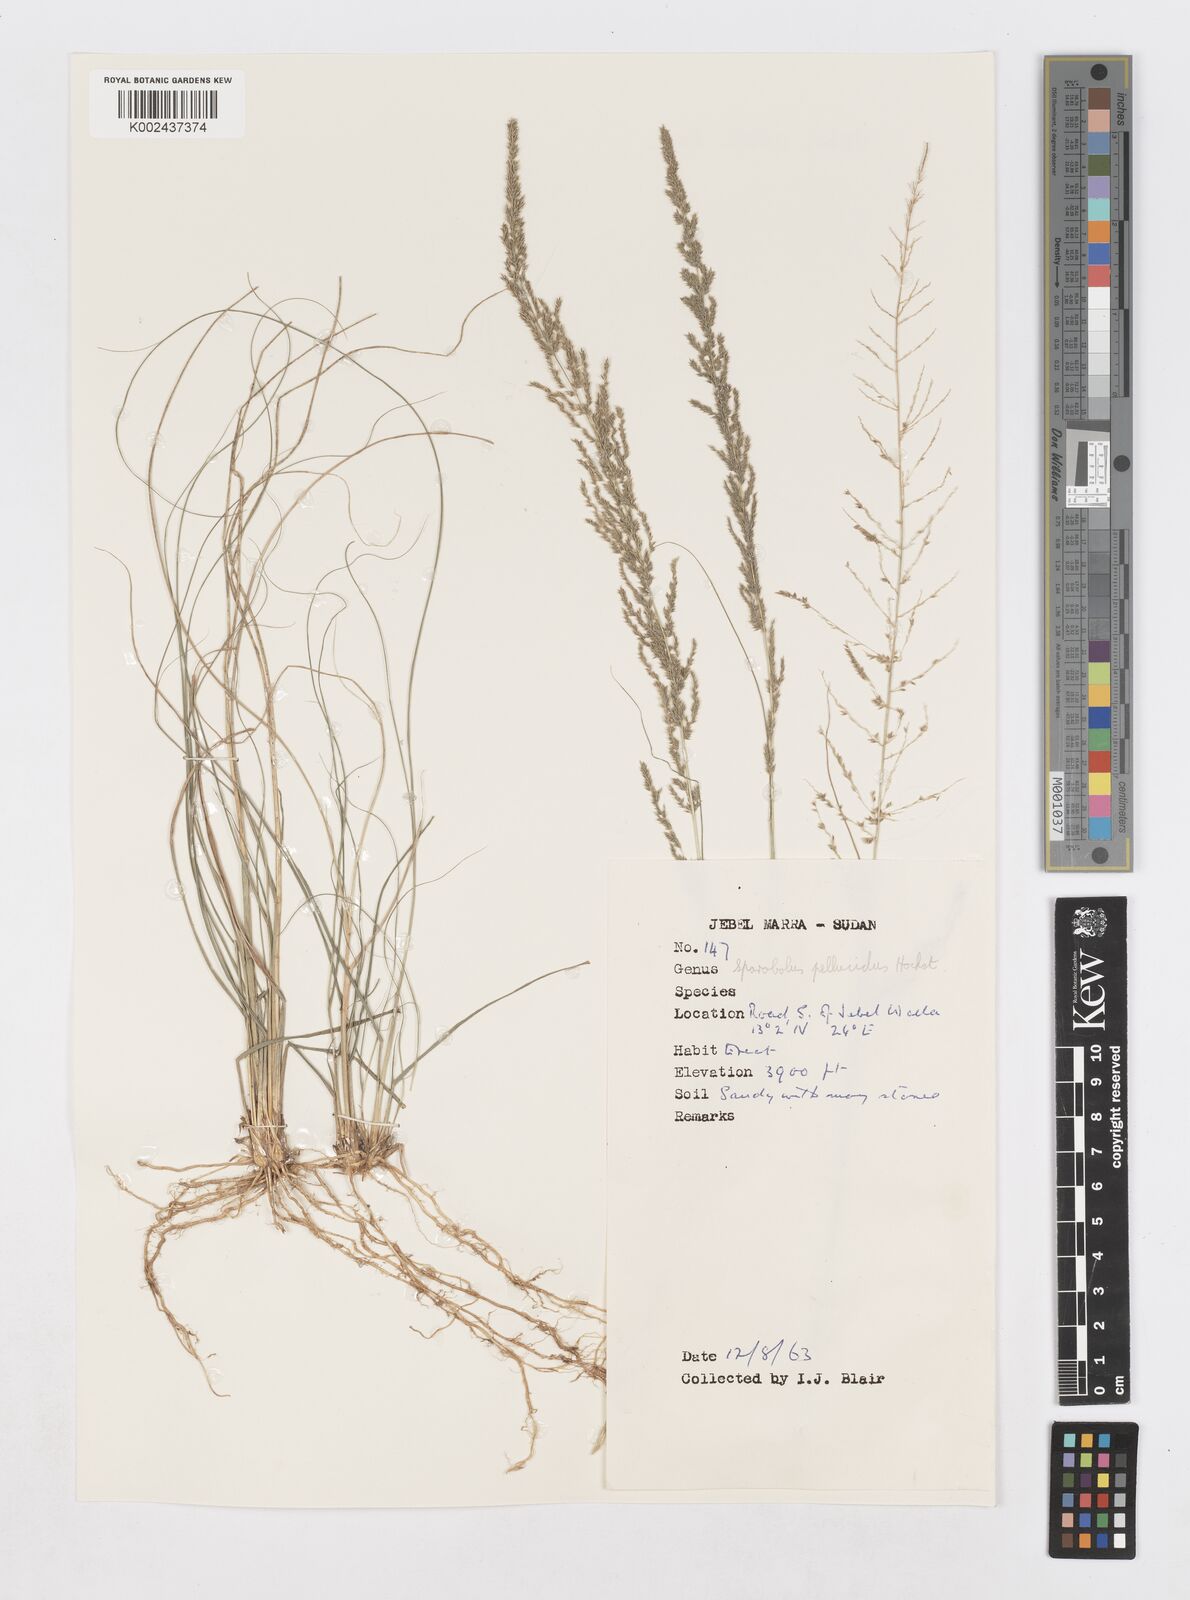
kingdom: Plantae
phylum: Tracheophyta
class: Liliopsida
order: Poales
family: Poaceae
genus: Sporobolus
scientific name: Sporobolus pellucidus
